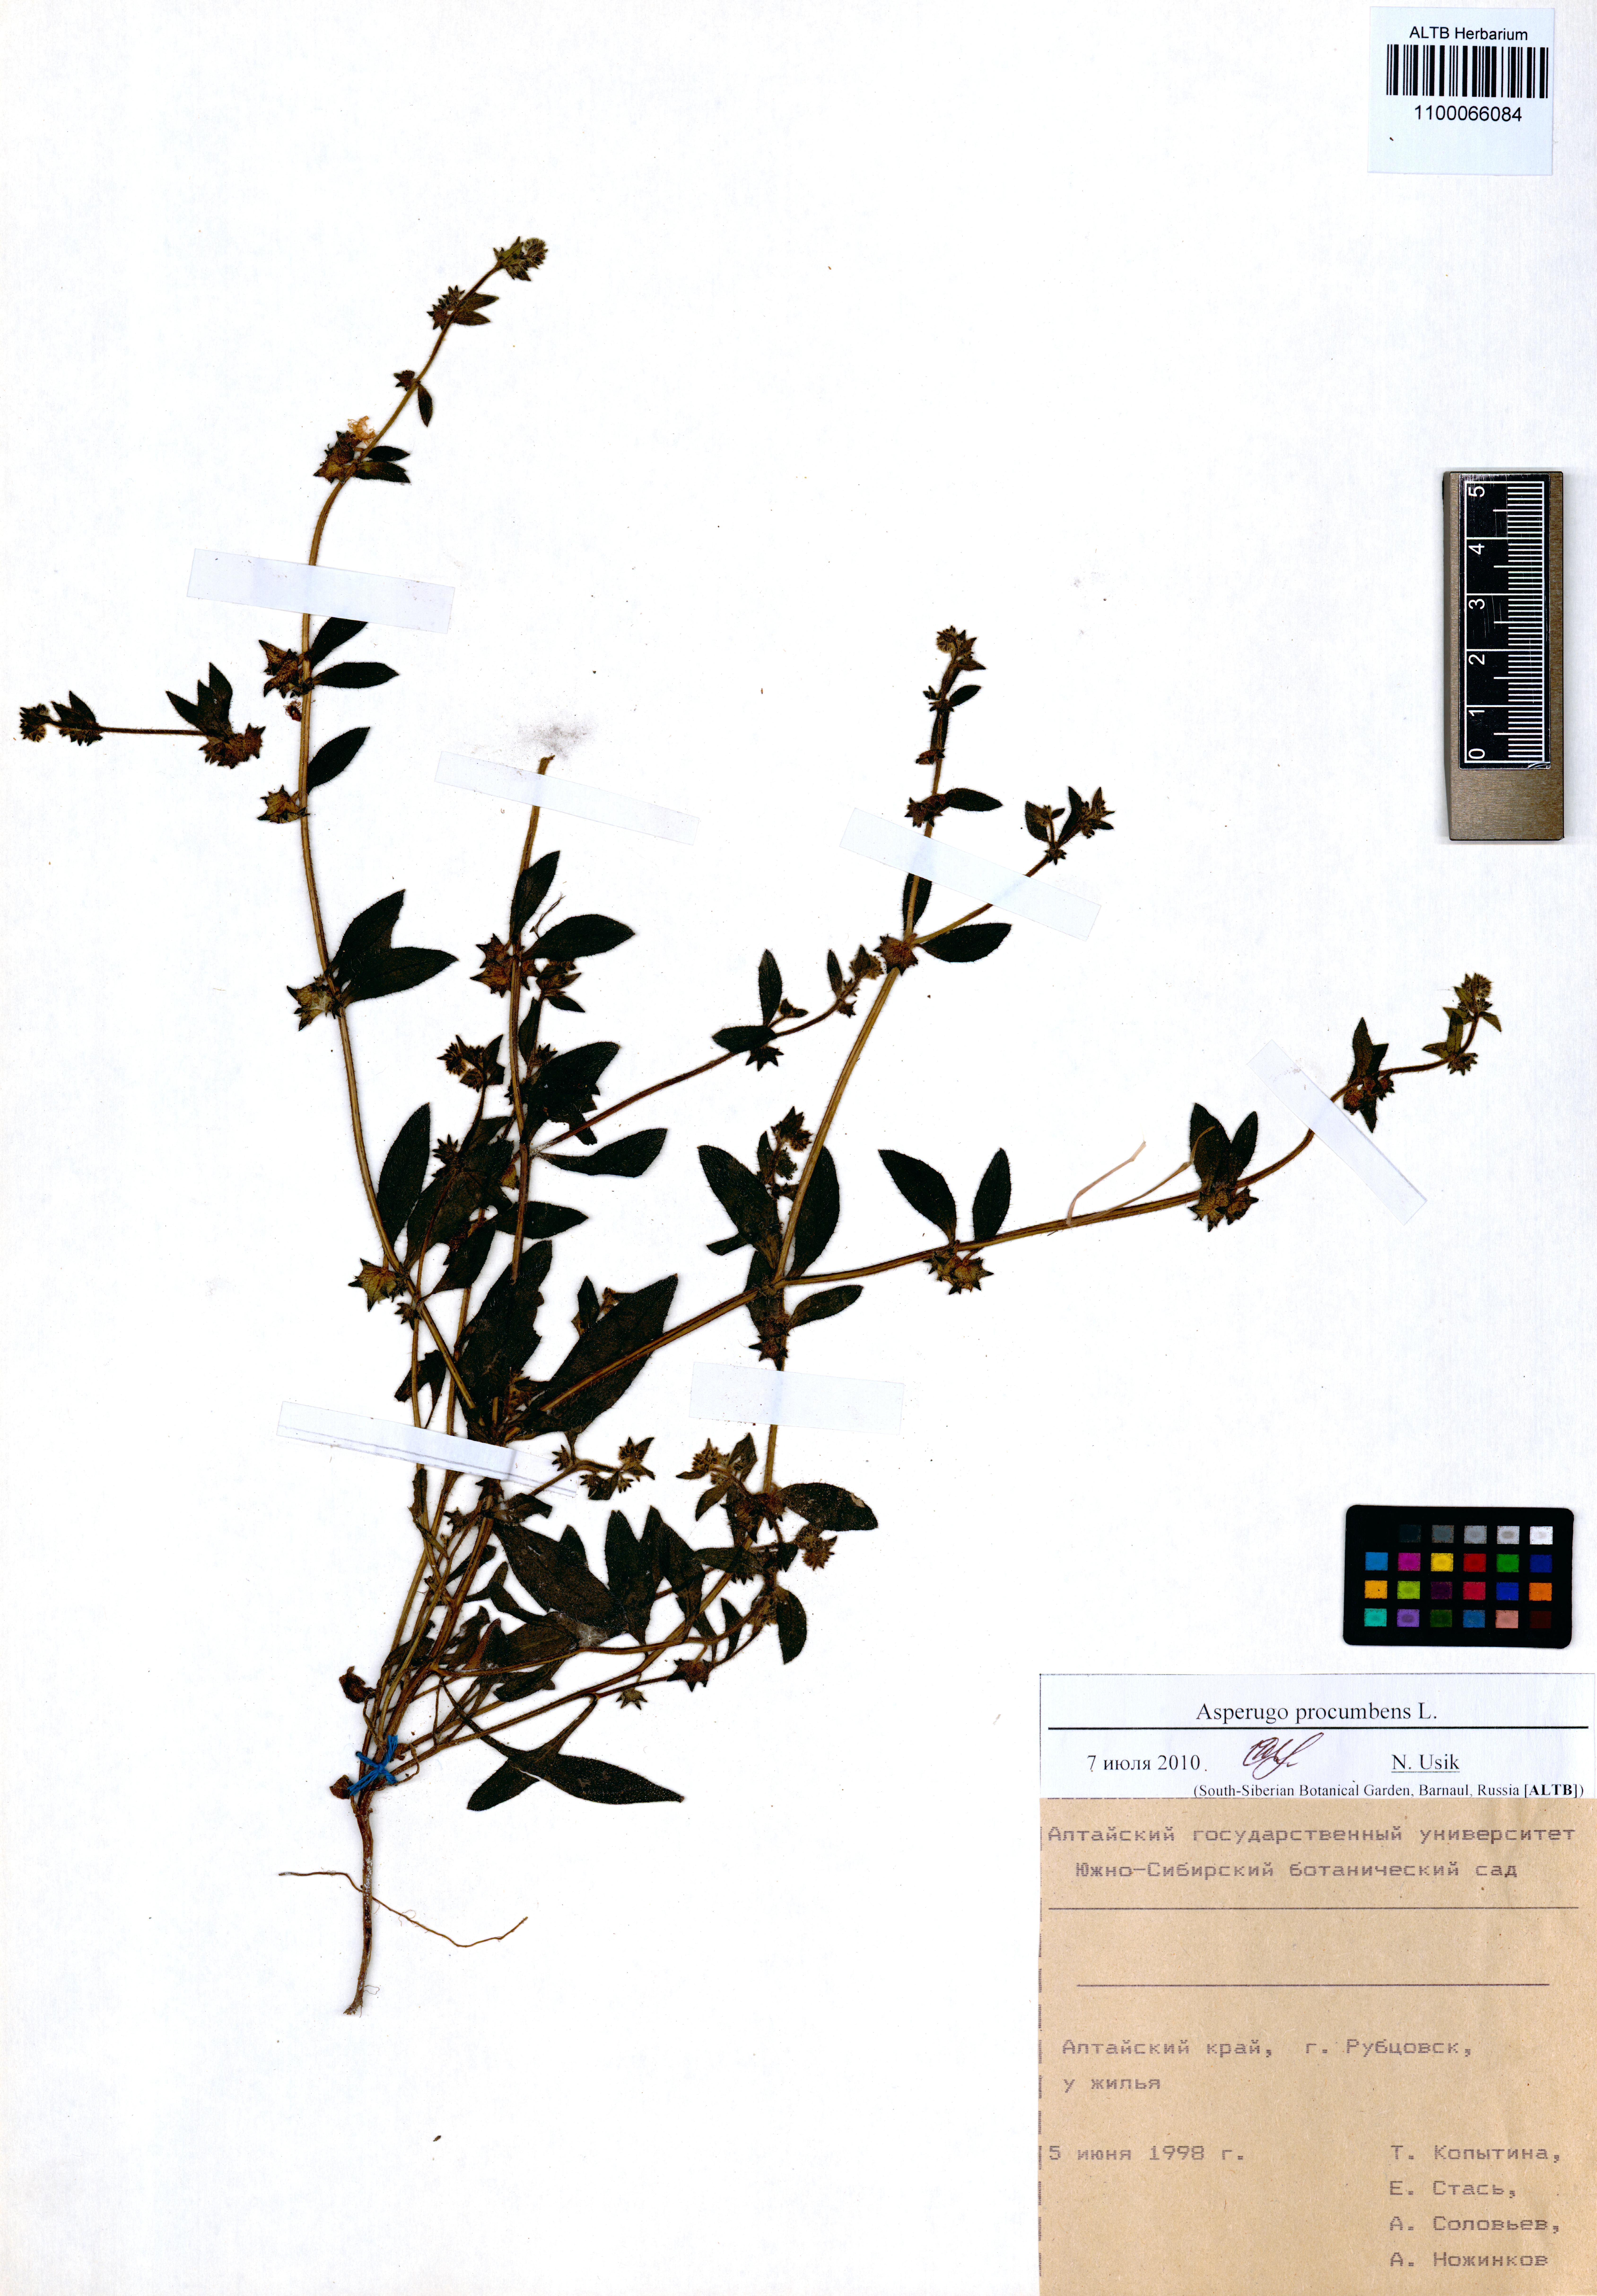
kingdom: Plantae
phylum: Tracheophyta
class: Magnoliopsida
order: Boraginales
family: Boraginaceae
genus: Asperugo
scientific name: Asperugo procumbens
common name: Madwort
